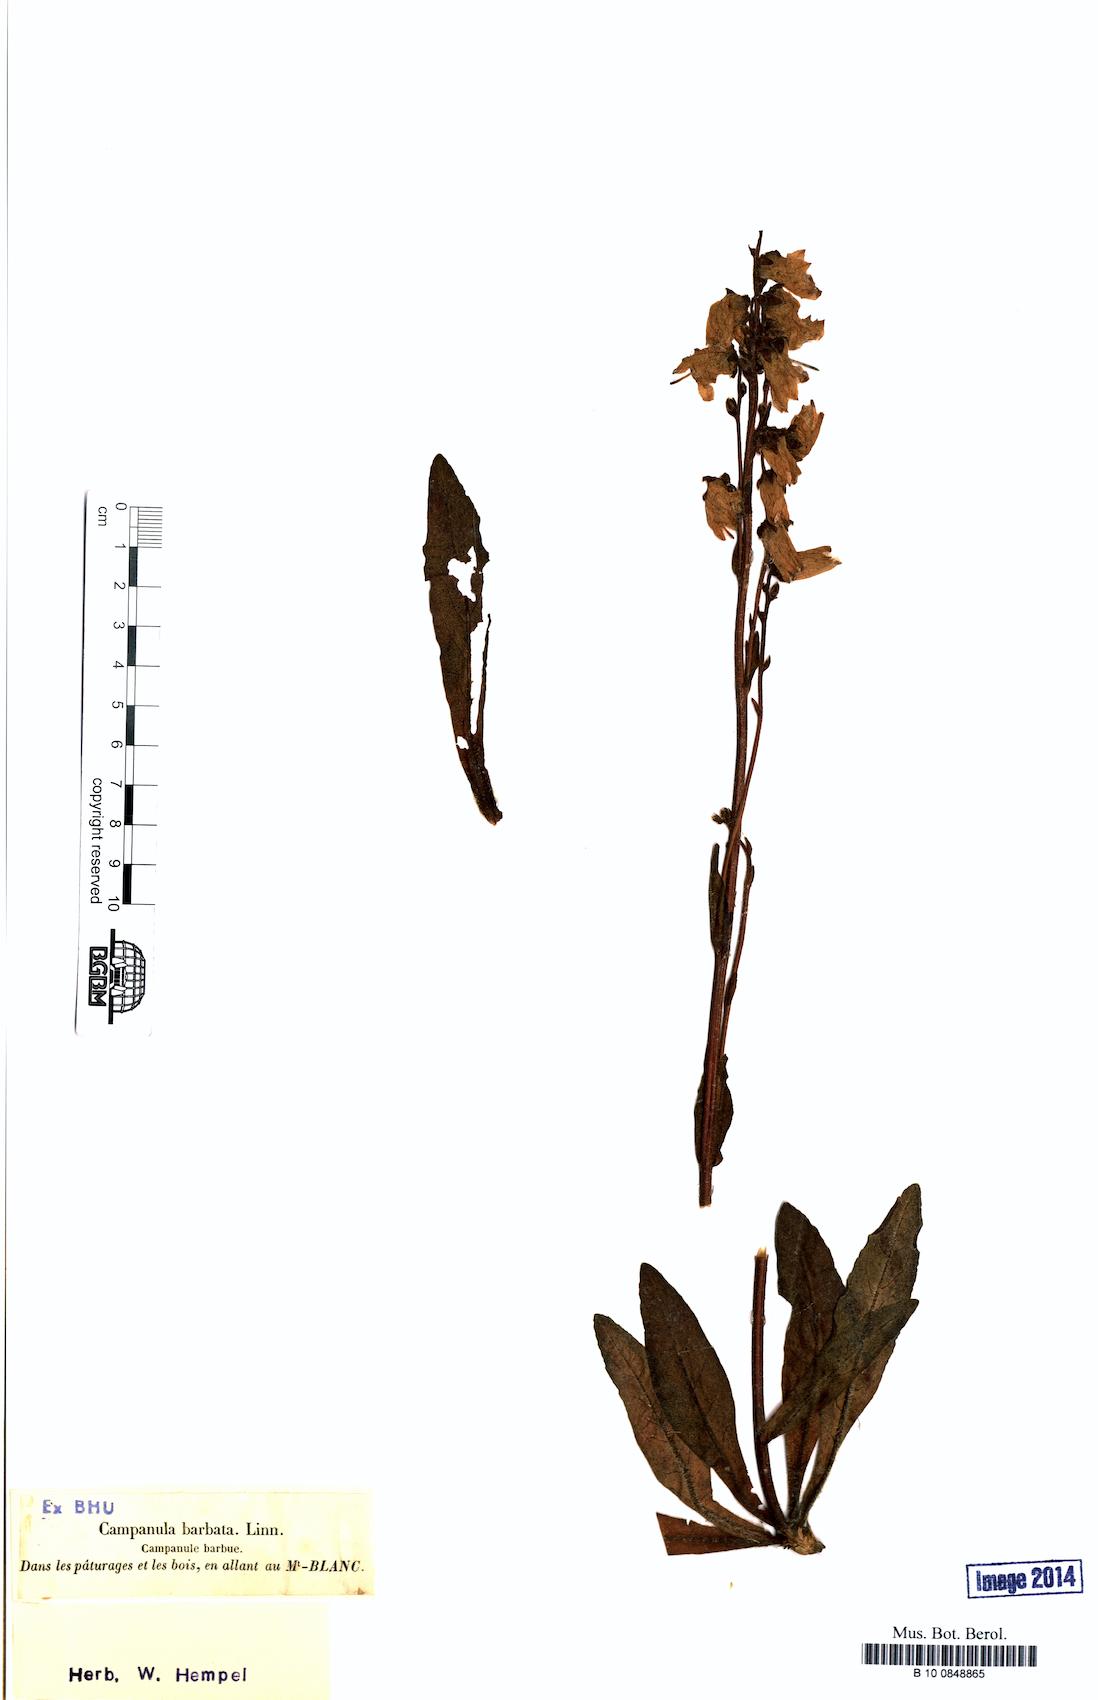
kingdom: Plantae
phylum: Tracheophyta
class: Magnoliopsida
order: Asterales
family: Campanulaceae
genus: Campanula
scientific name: Campanula barbata
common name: Bearded bellflower
